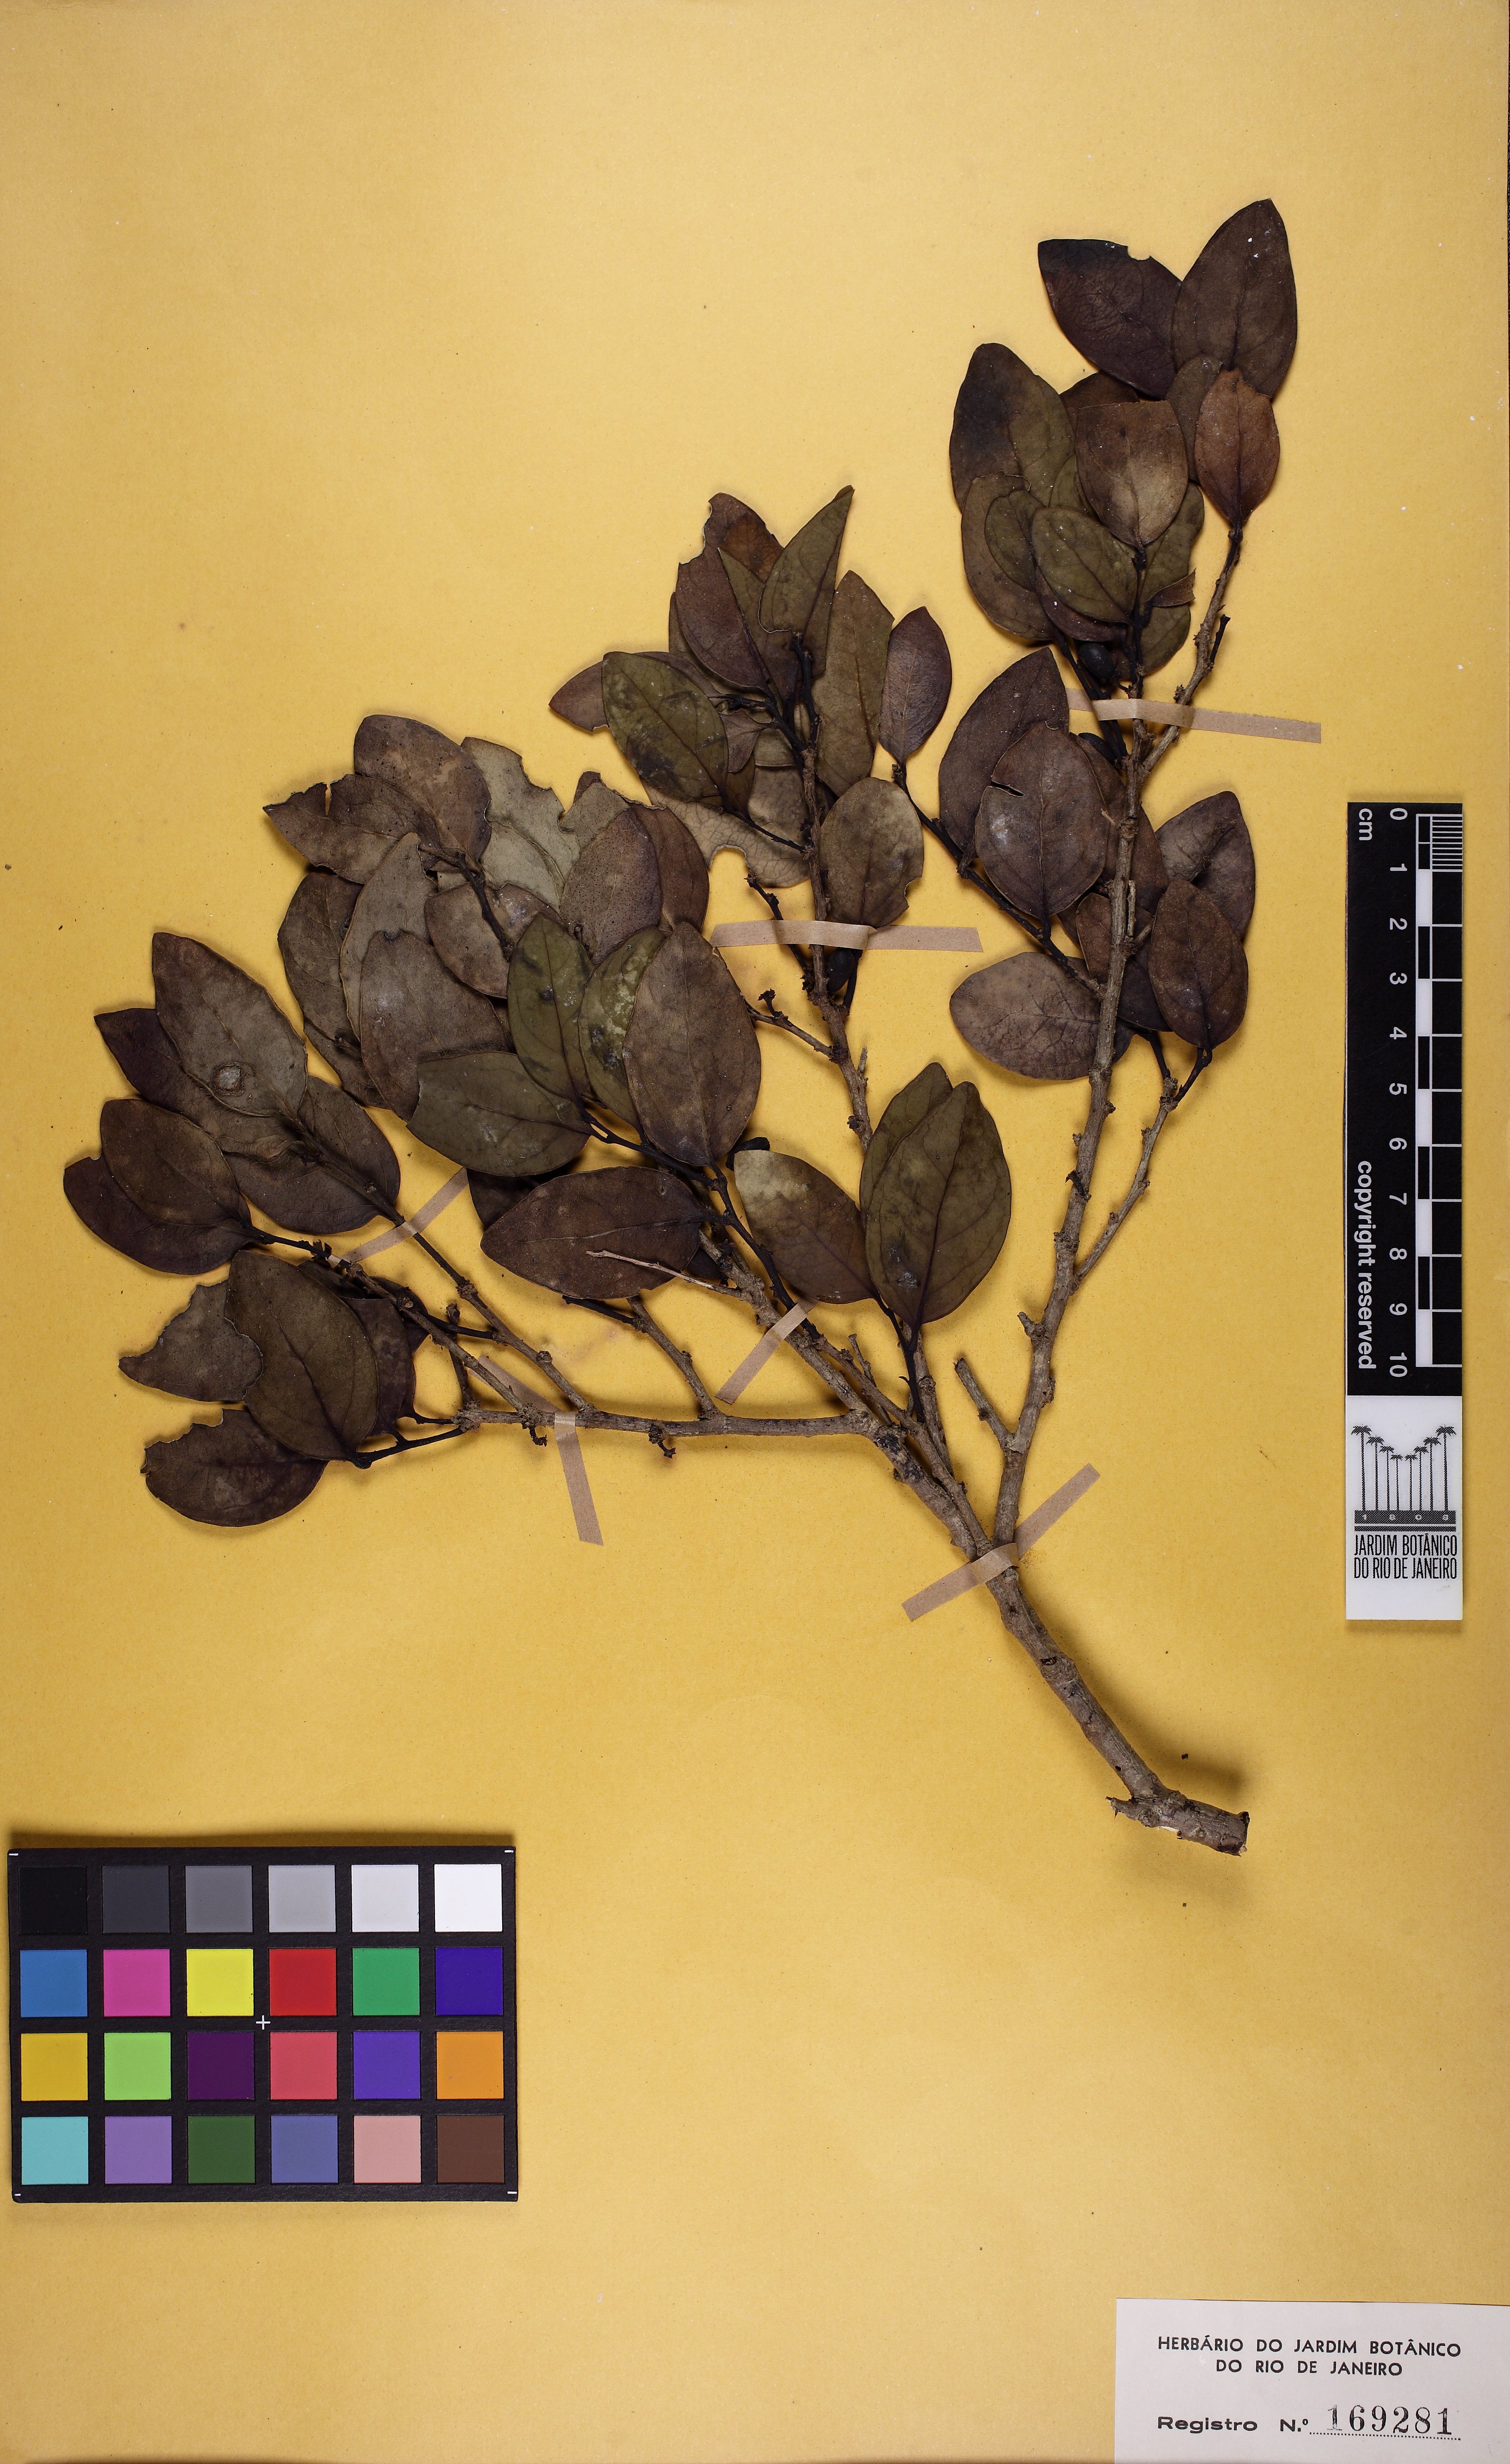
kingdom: Plantae
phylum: Tracheophyta
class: Magnoliopsida
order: Santalales
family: Olacaceae
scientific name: Olacaceae
